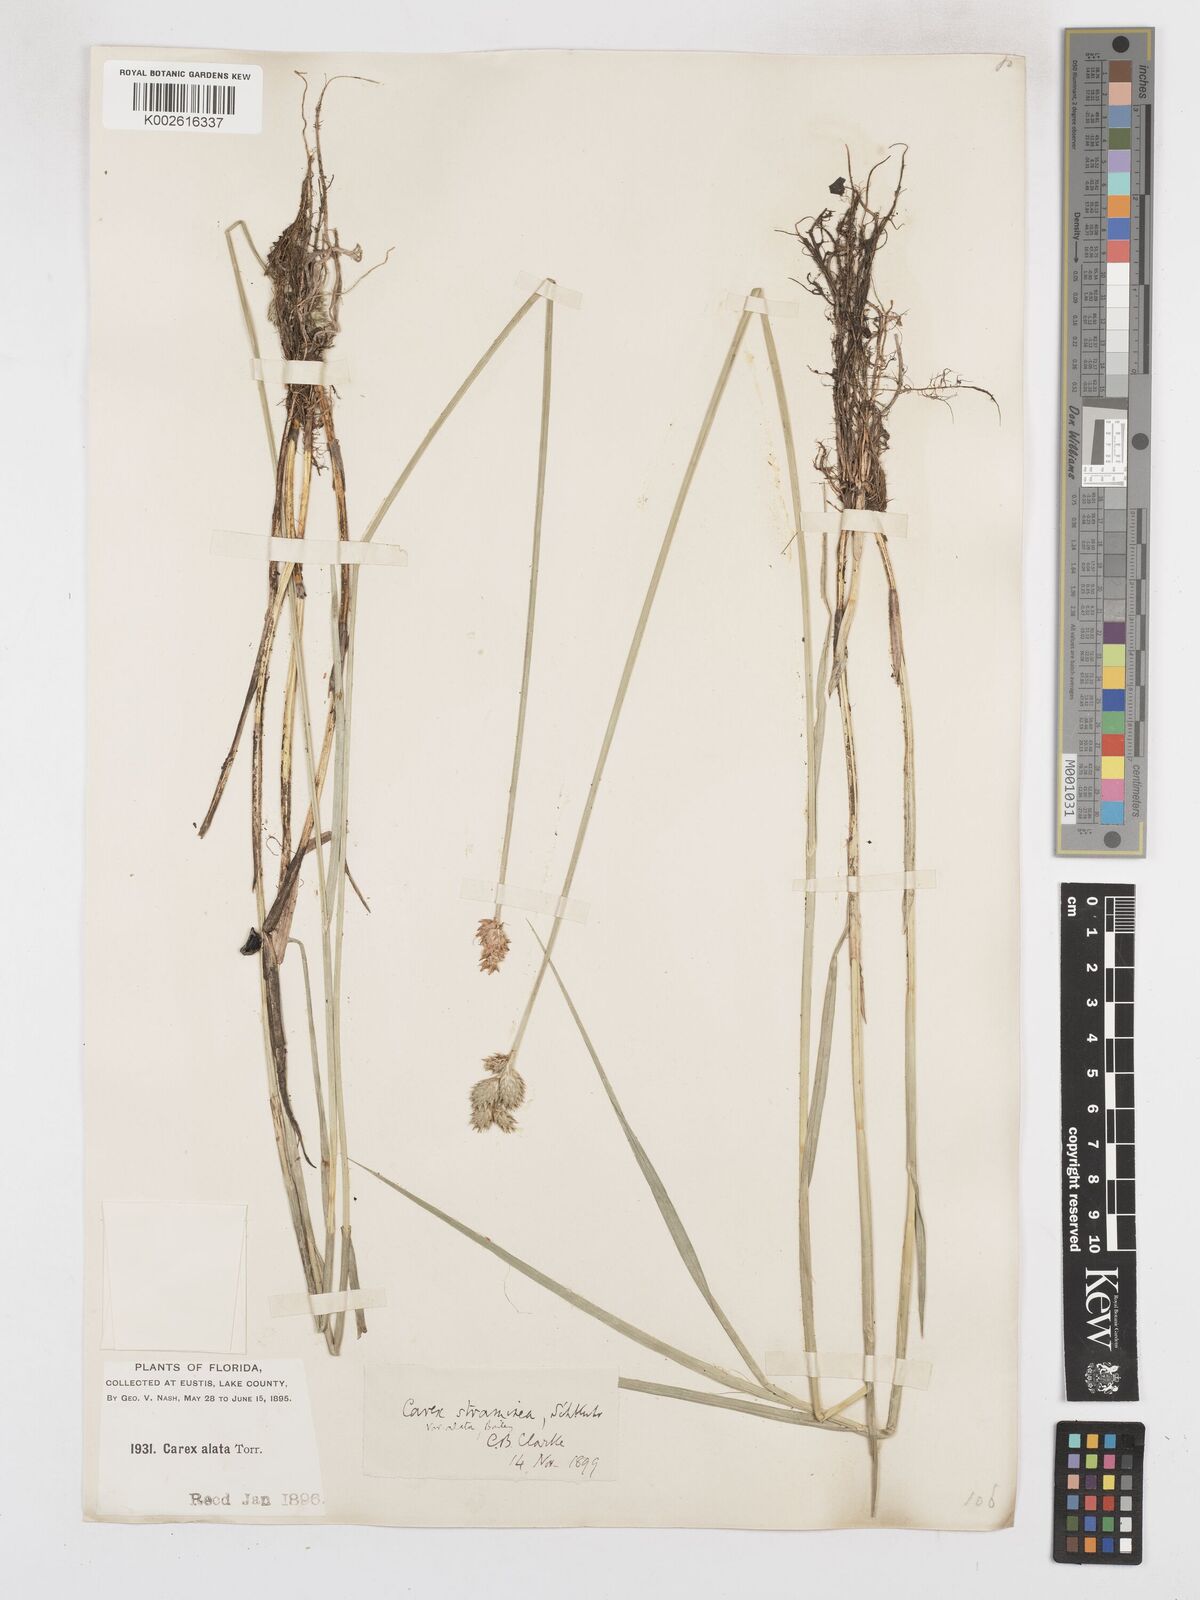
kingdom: Plantae
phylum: Tracheophyta
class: Liliopsida
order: Poales
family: Cyperaceae
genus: Carex
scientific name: Carex alata
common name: Broad-winged sedge
